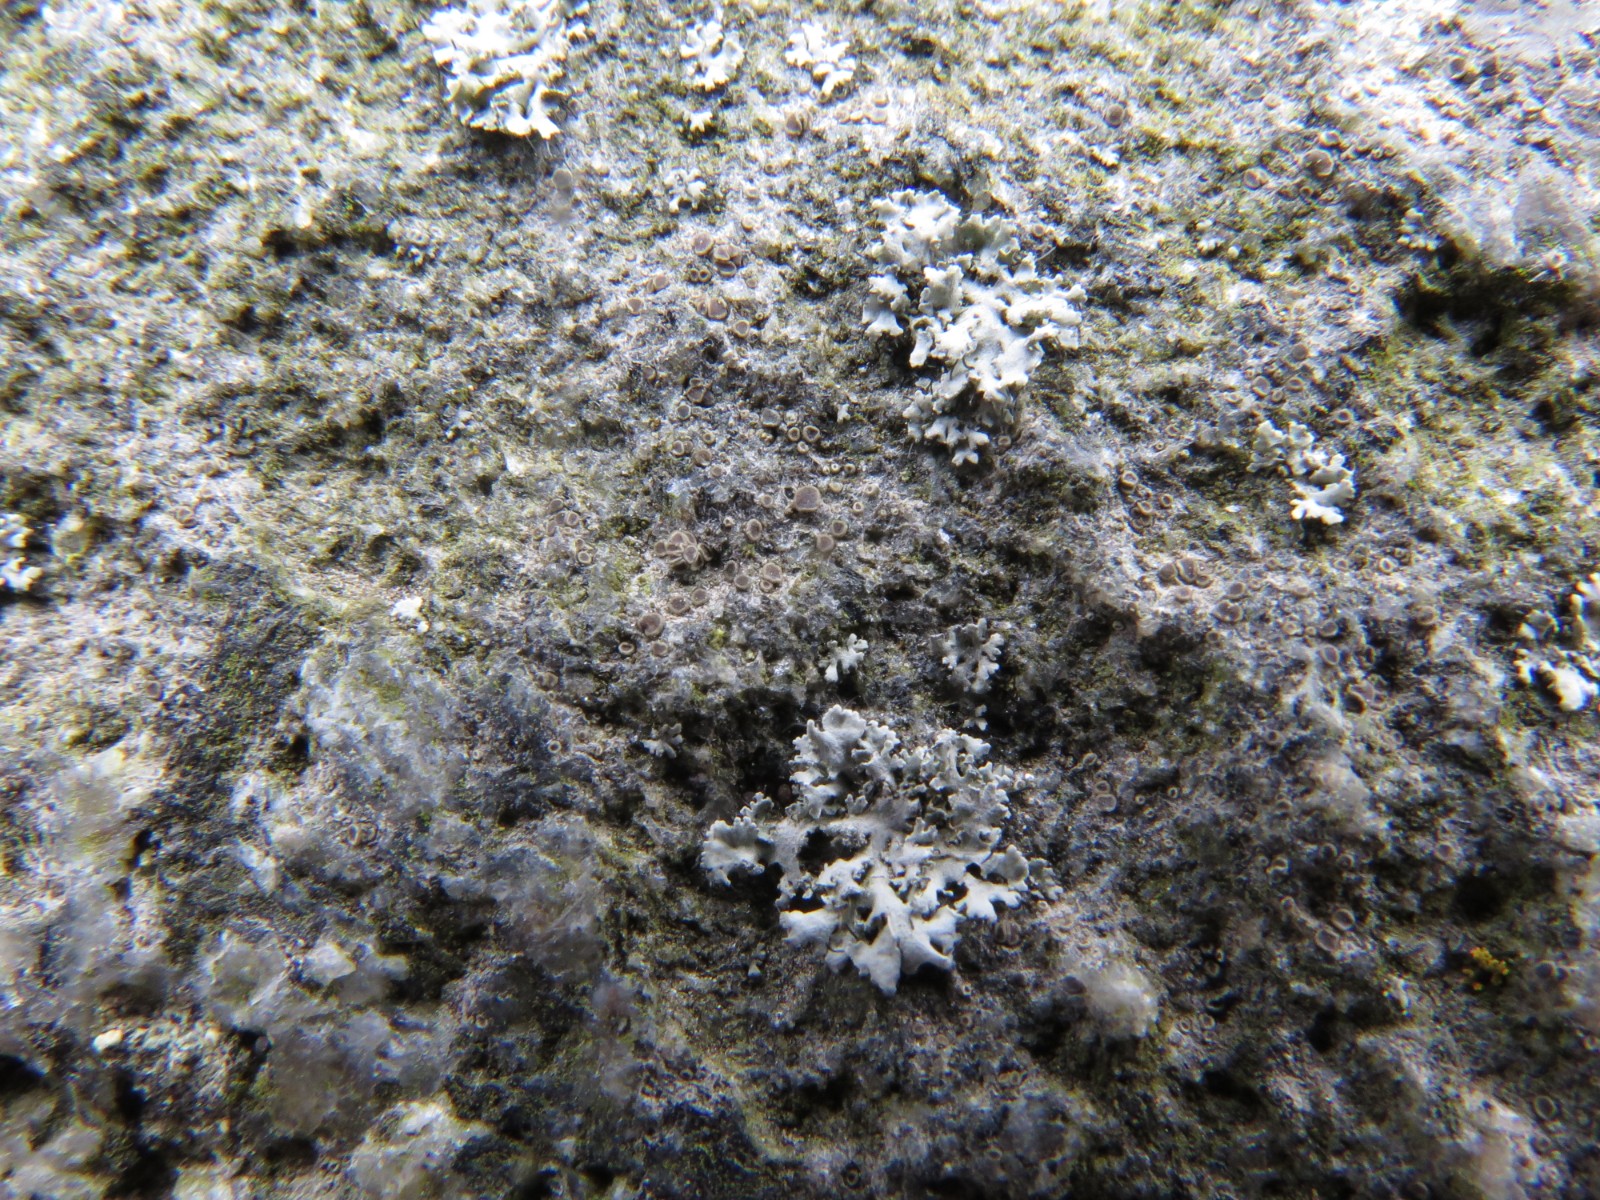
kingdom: Fungi
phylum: Ascomycota
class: Lecanoromycetes
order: Caliciales
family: Physciaceae
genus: Physcia
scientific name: Physcia tenella
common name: spæd rosetlav
